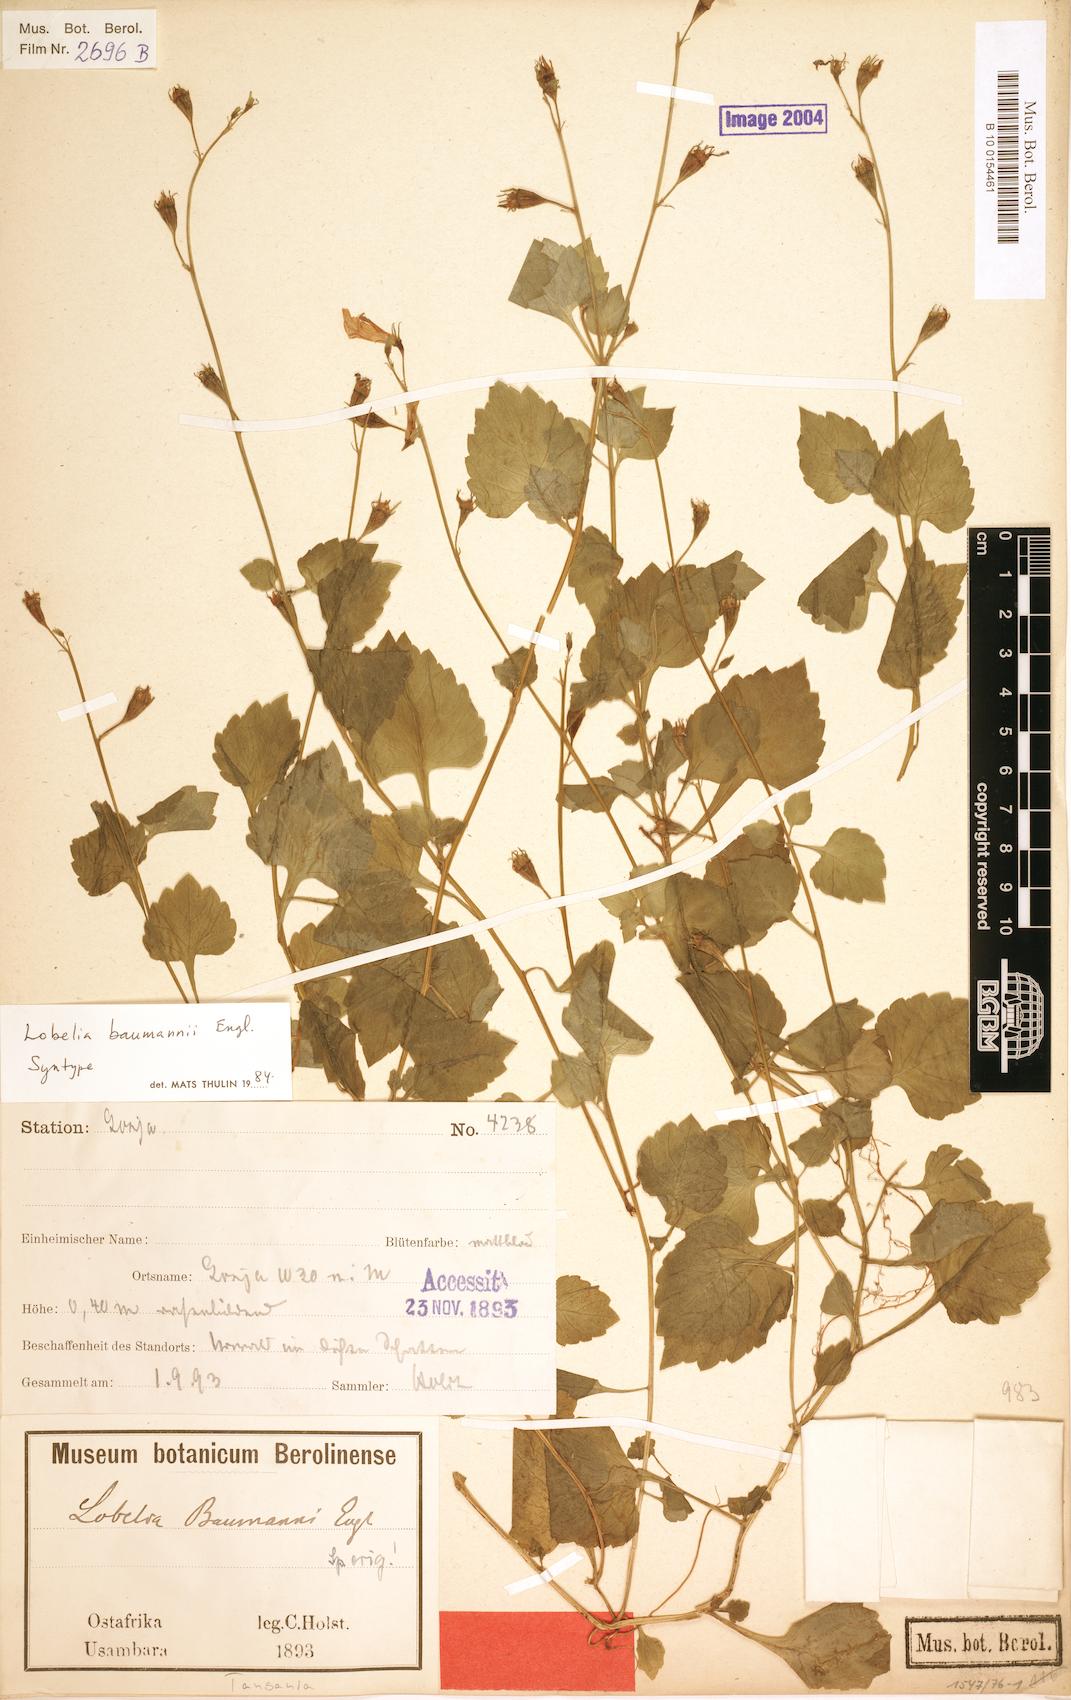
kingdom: Plantae
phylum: Tracheophyta
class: Magnoliopsida
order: Asterales
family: Campanulaceae
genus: Lobelia
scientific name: Lobelia baumannii
